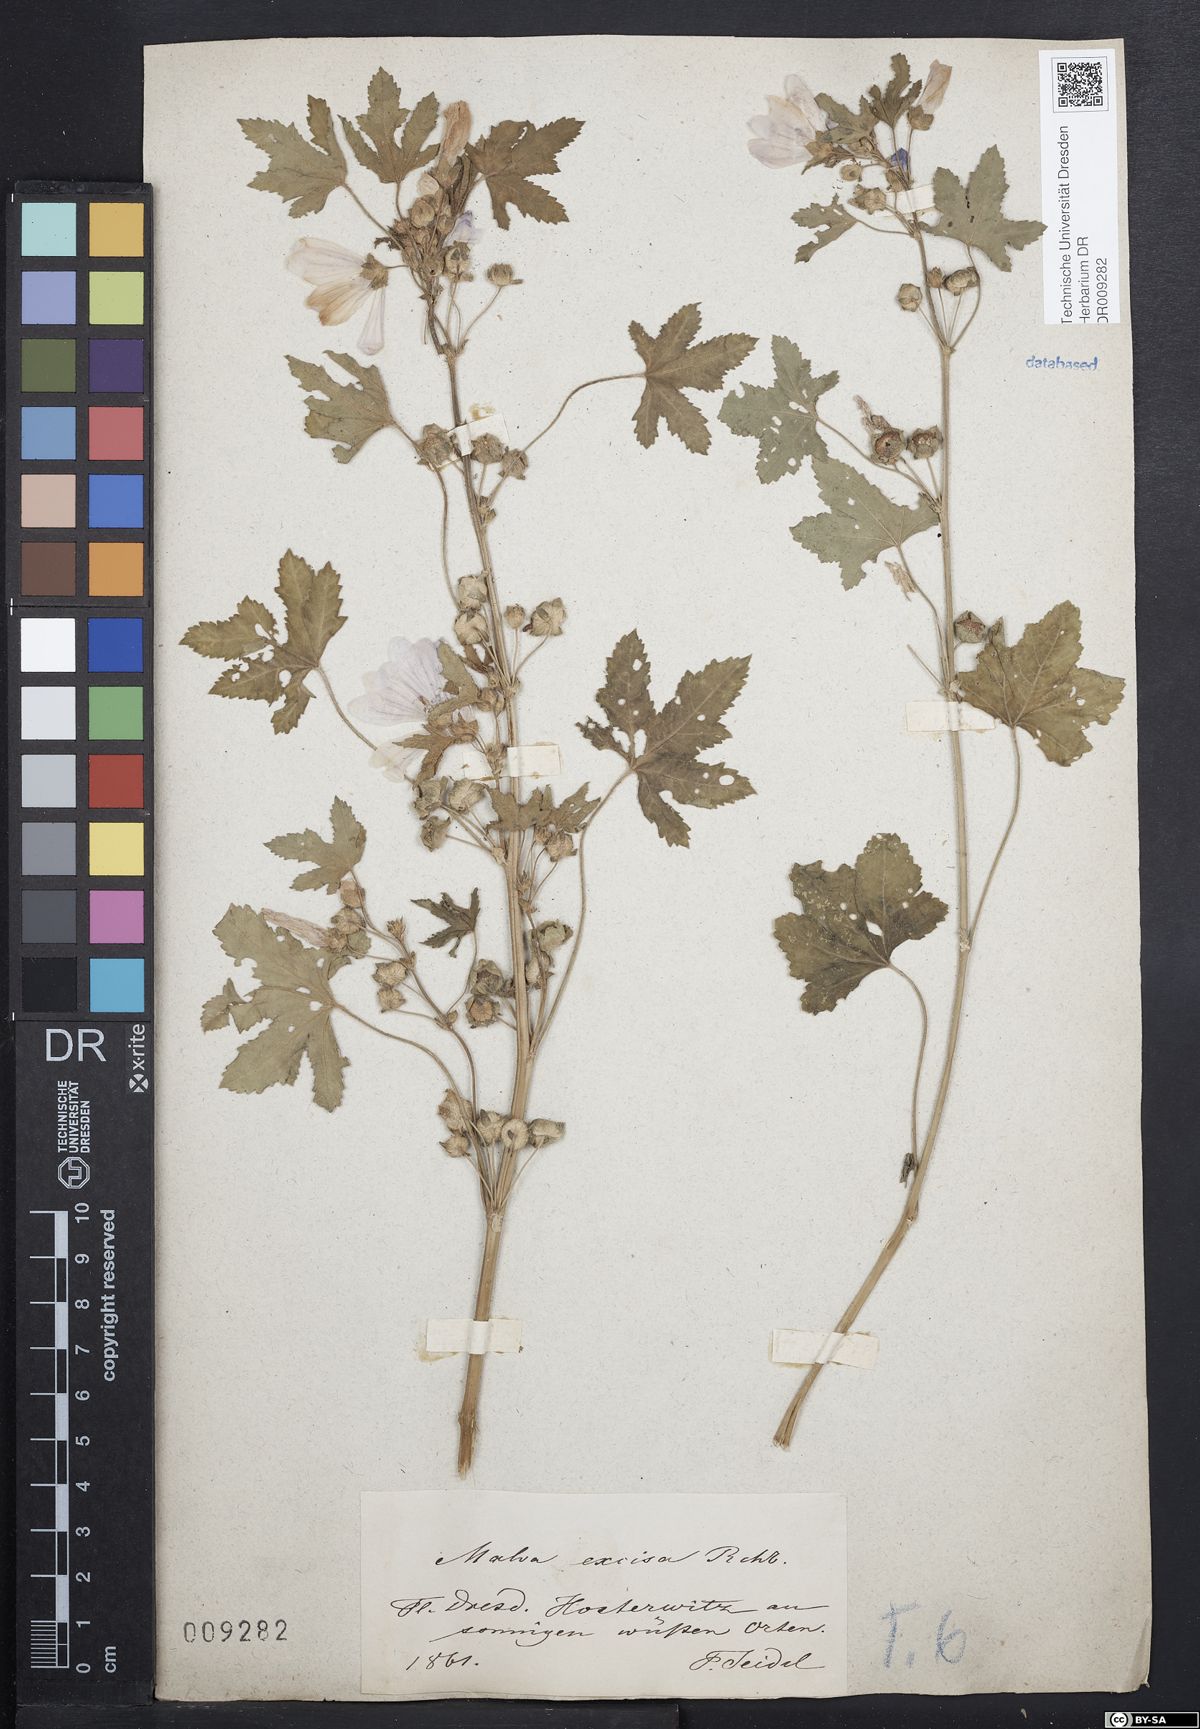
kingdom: Plantae
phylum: Tracheophyta
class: Magnoliopsida
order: Malvales
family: Malvaceae
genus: Malva
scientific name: Malva alcea
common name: Greater musk-mallow
